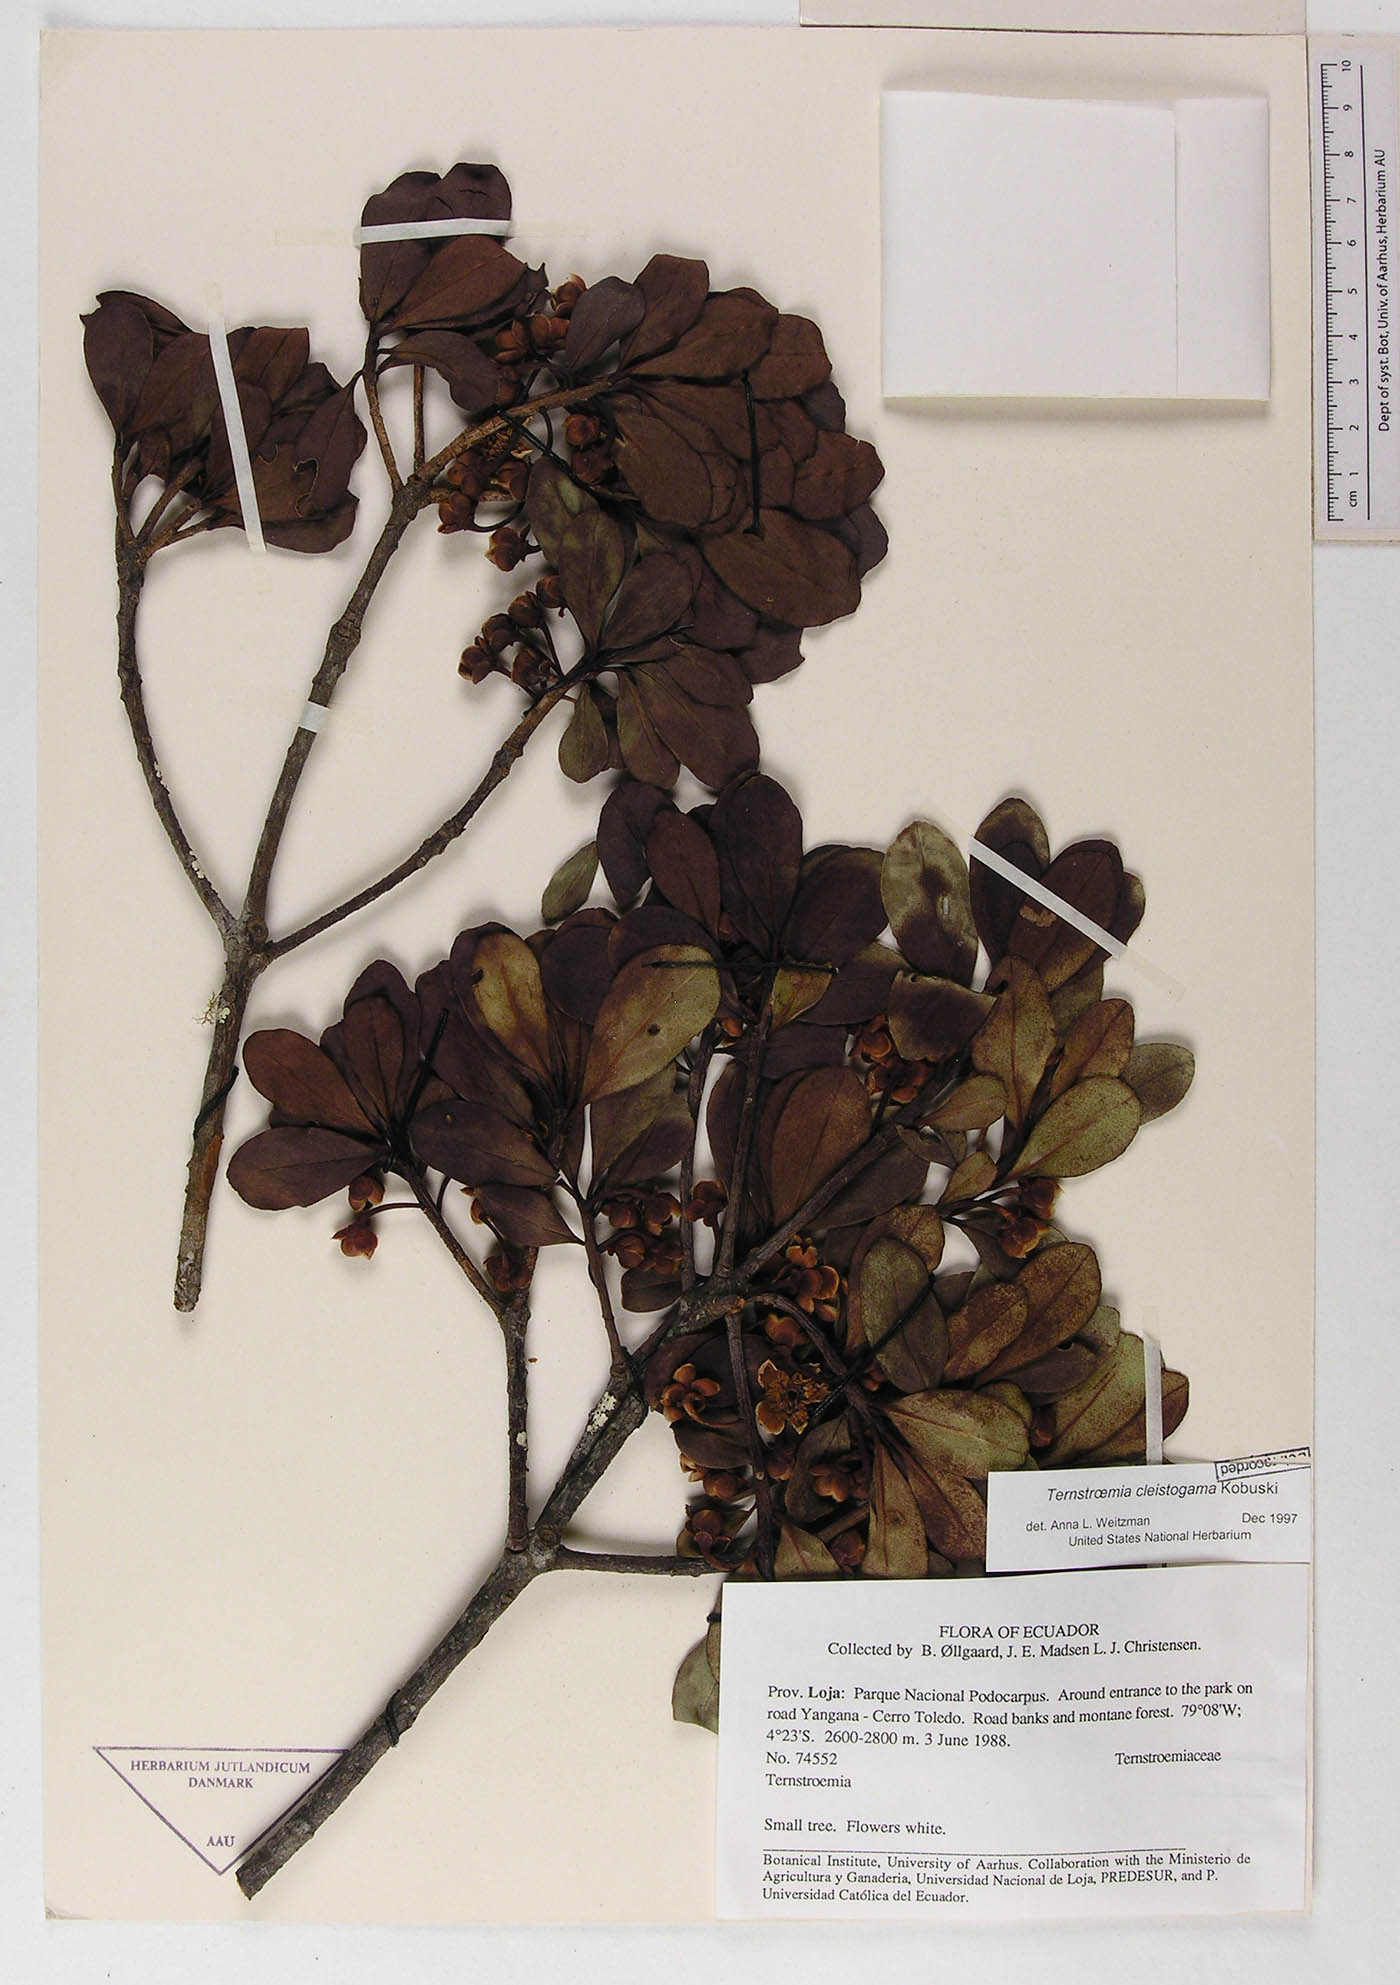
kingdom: Plantae
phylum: Tracheophyta
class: Magnoliopsida
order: Ericales
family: Pentaphylacaceae
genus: Ternstroemia
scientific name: Ternstroemia cleistogama
